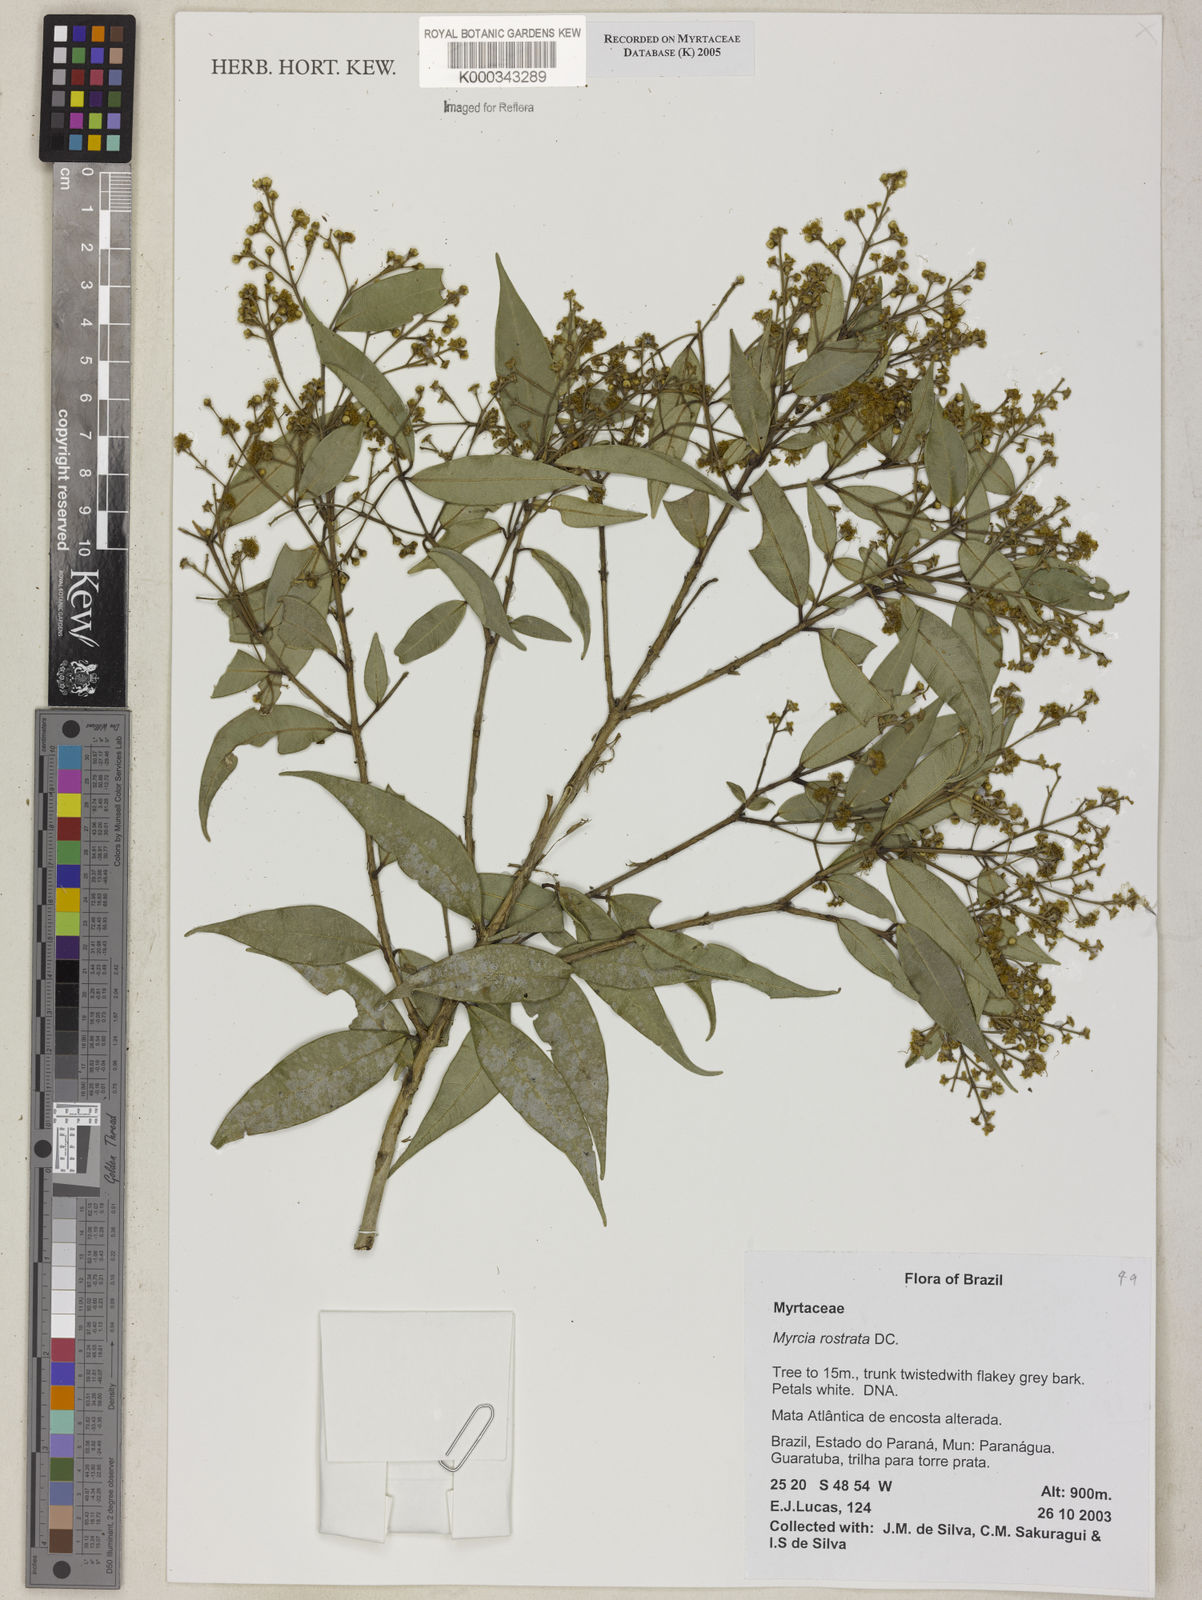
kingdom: Plantae
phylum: Tracheophyta
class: Magnoliopsida
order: Myrtales
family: Myrtaceae
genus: Myrcia
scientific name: Myrcia splendens
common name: Surinam cherry
